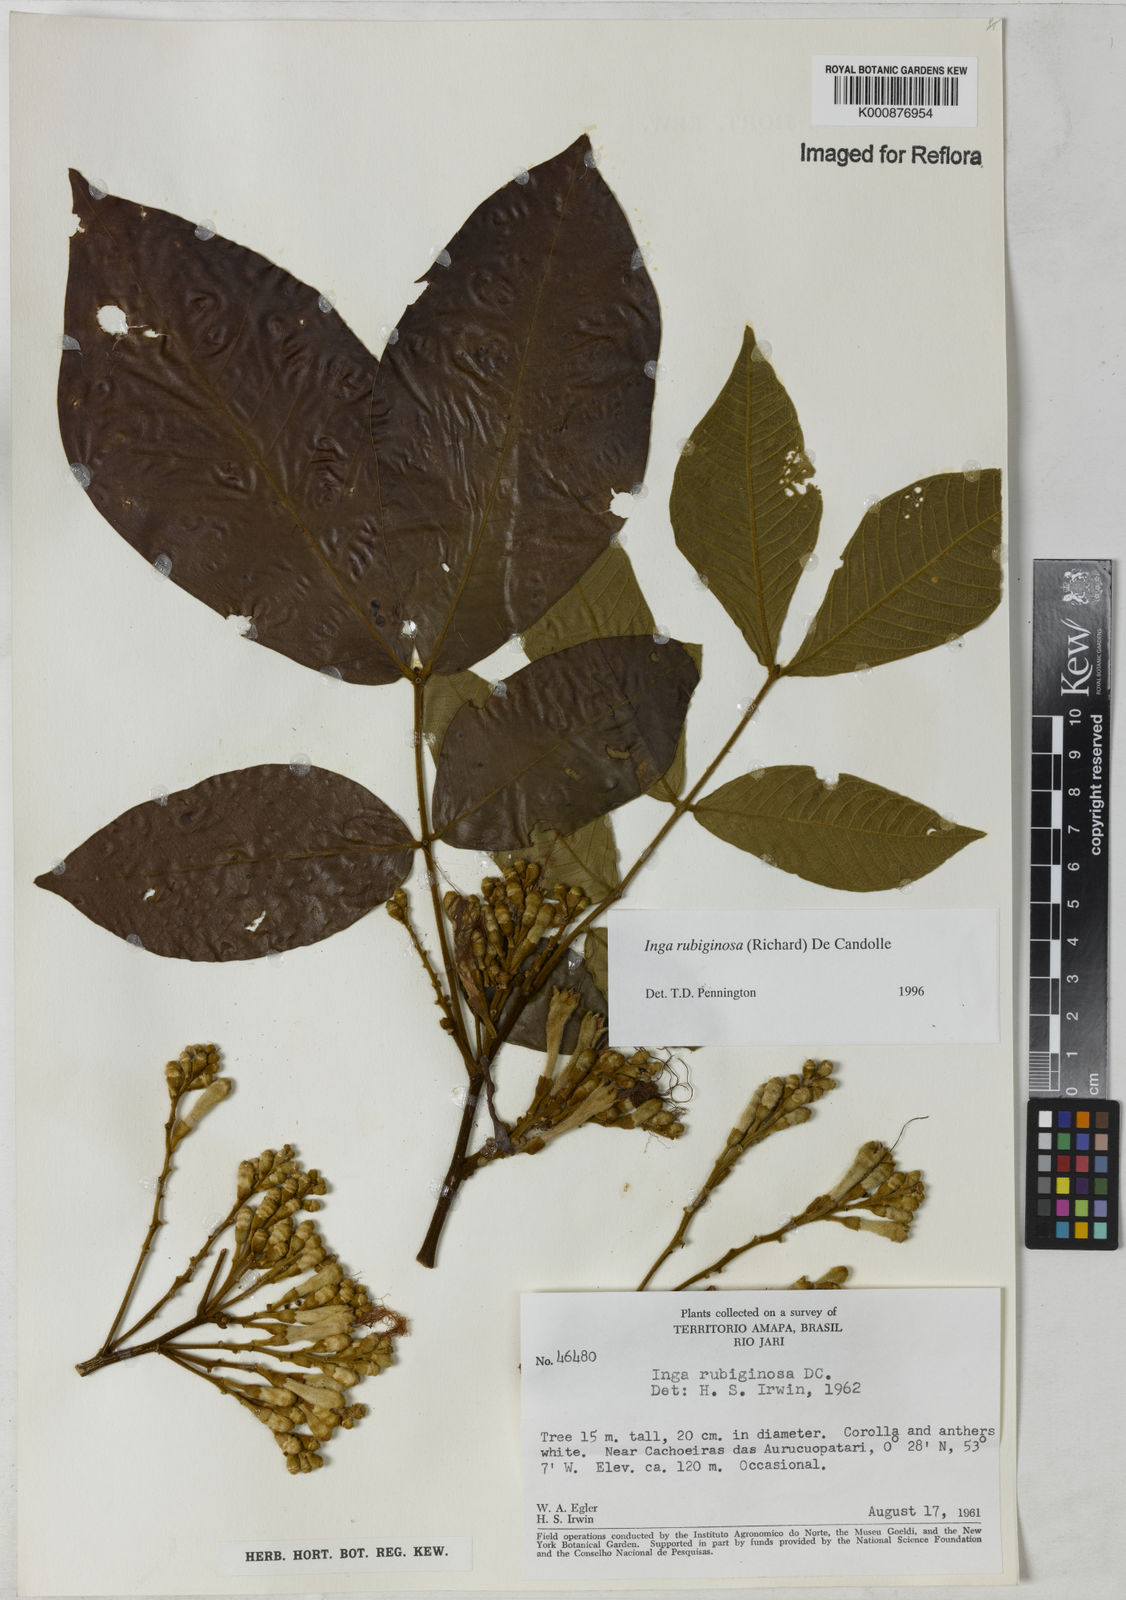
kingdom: Plantae
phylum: Tracheophyta
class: Magnoliopsida
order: Fabales
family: Fabaceae
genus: Inga
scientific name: Inga rubiginosa
